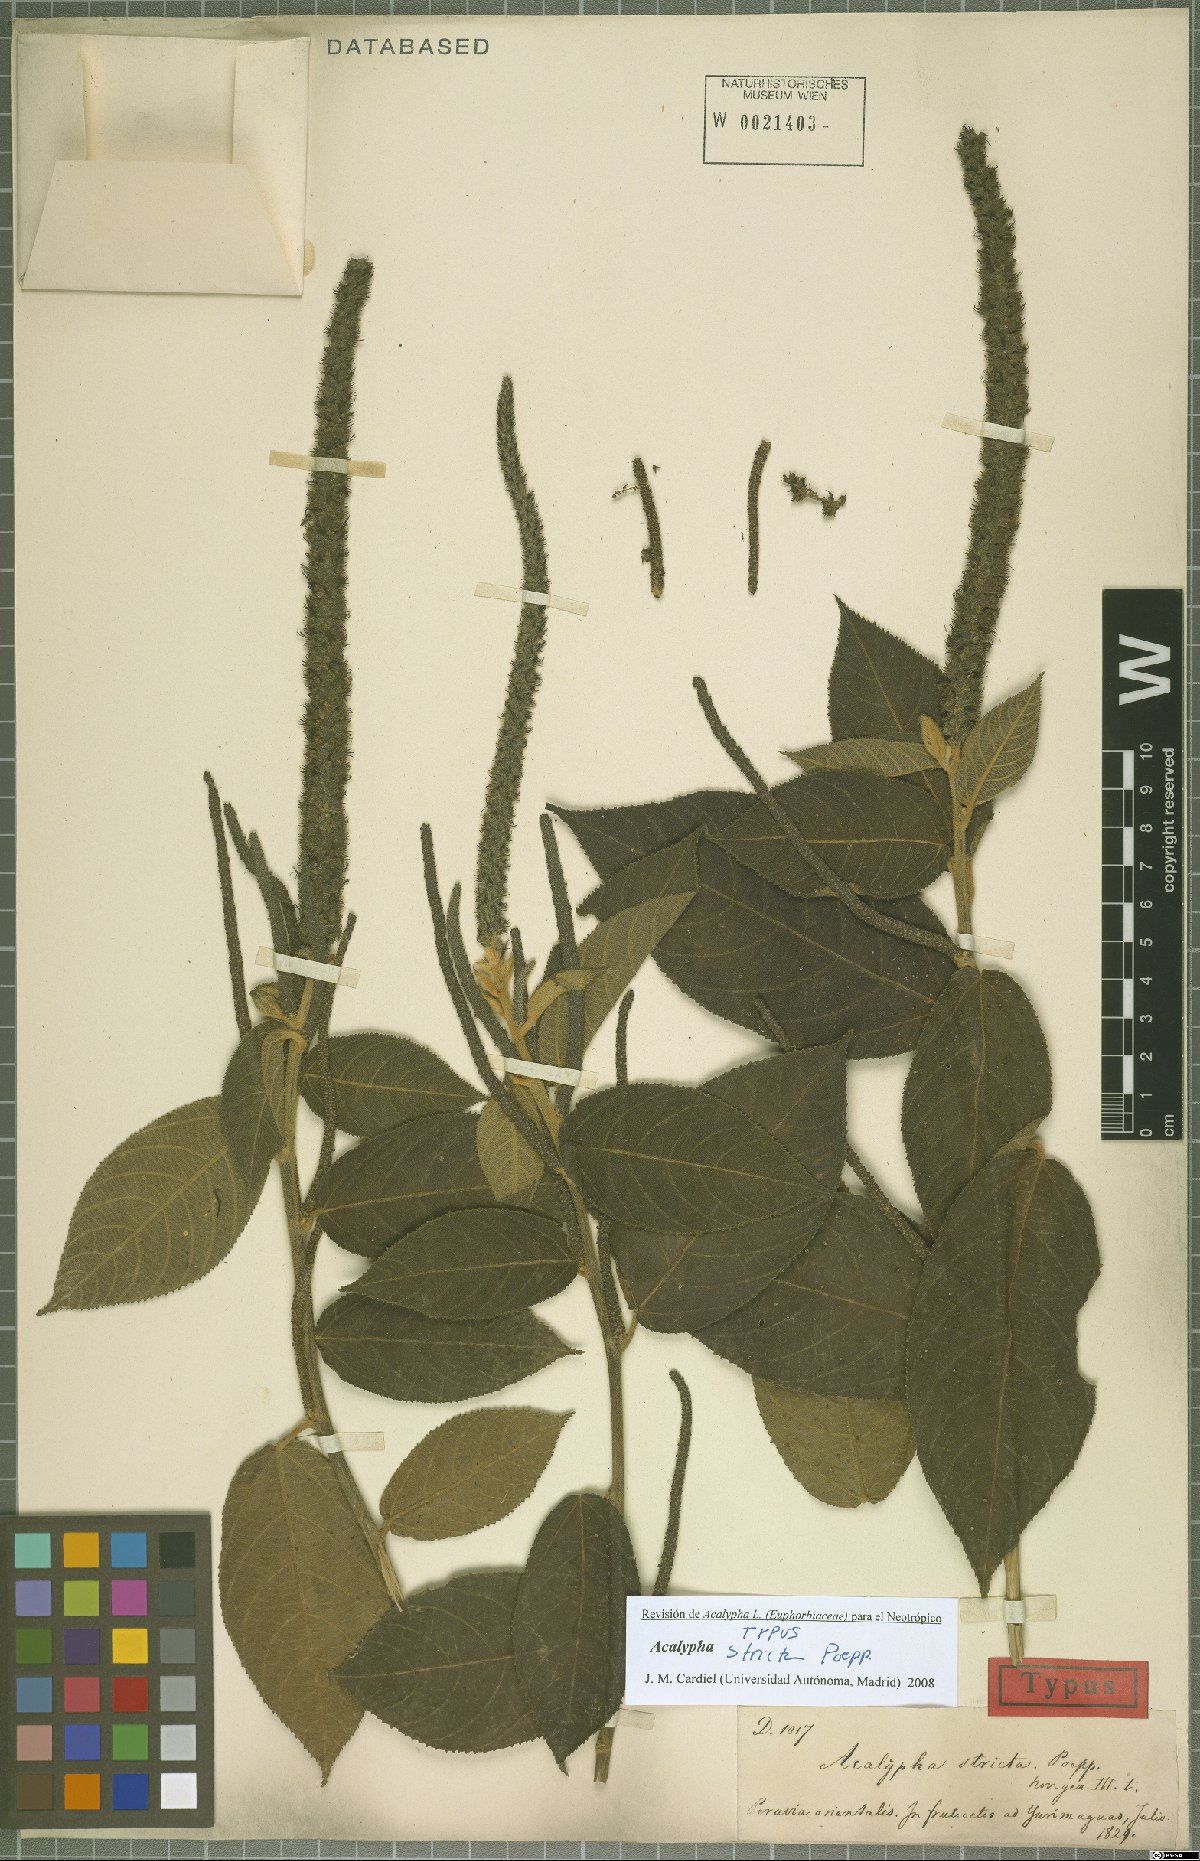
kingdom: Plantae
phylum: Tracheophyta
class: Magnoliopsida
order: Malpighiales
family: Euphorbiaceae
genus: Acalypha
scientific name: Acalypha stricta
